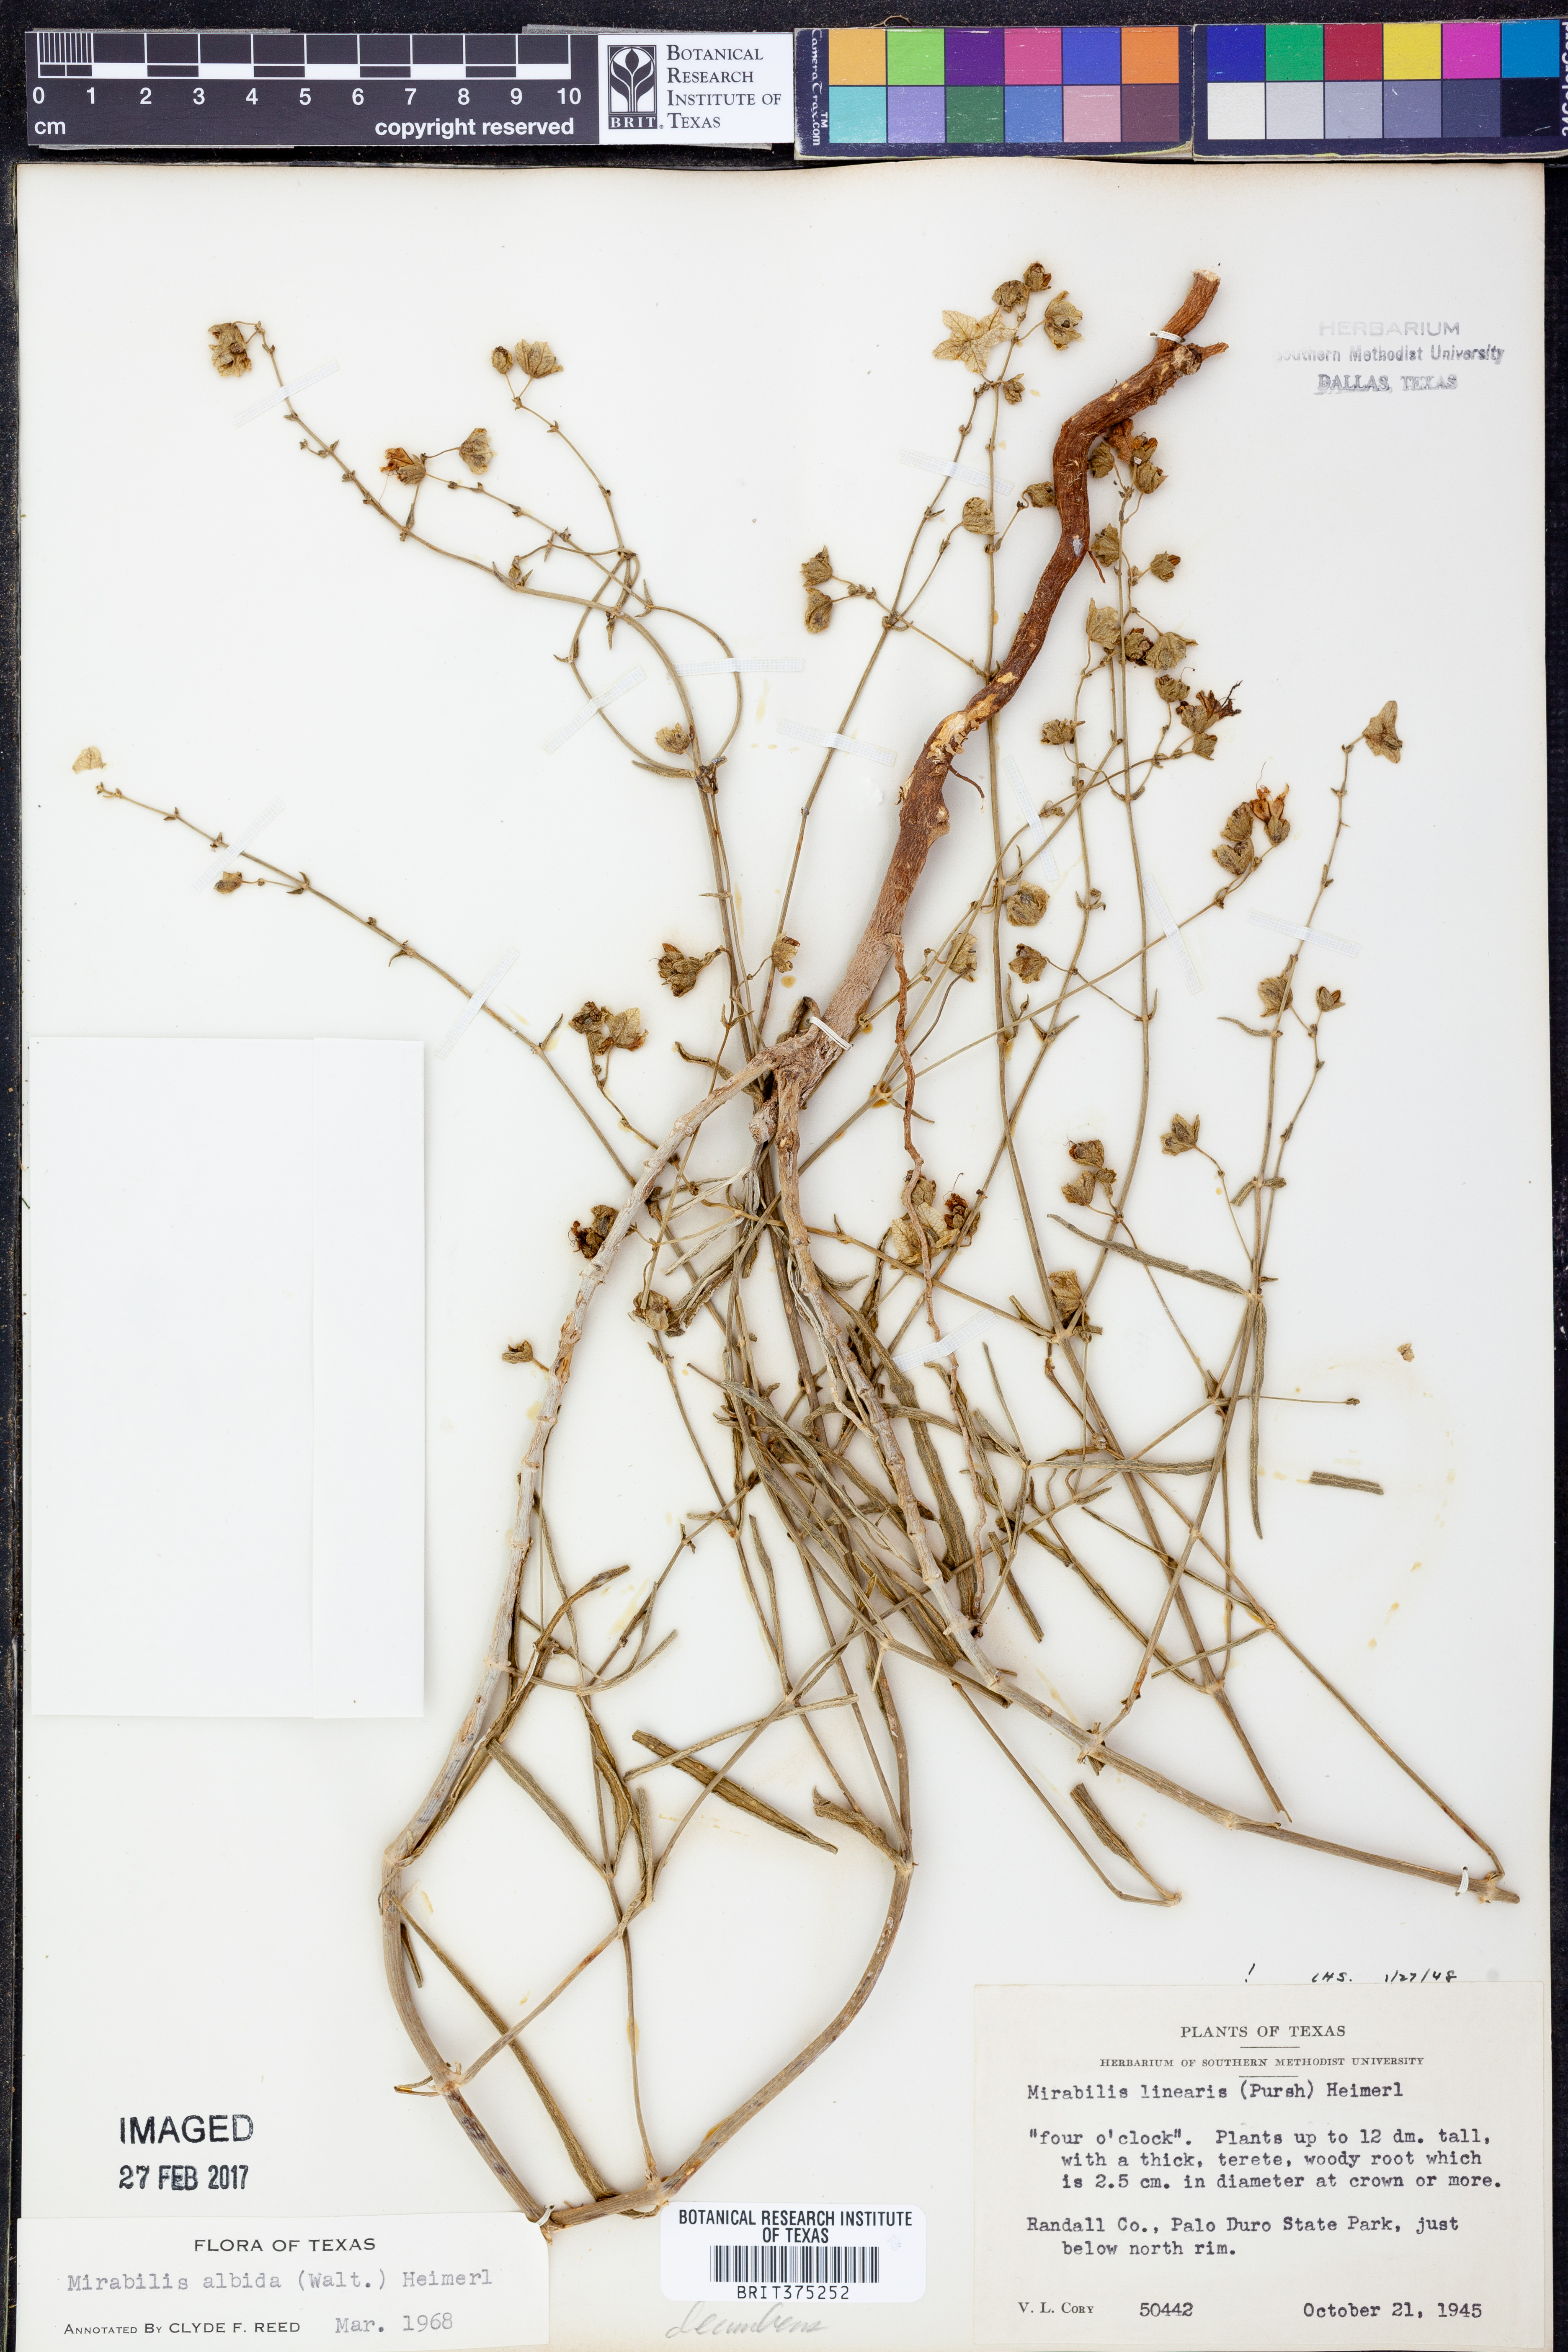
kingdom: Plantae
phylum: Tracheophyta
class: Magnoliopsida
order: Caryophyllales
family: Nyctaginaceae
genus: Mirabilis
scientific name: Mirabilis linearis
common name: Linear-leaved four-o'clock
